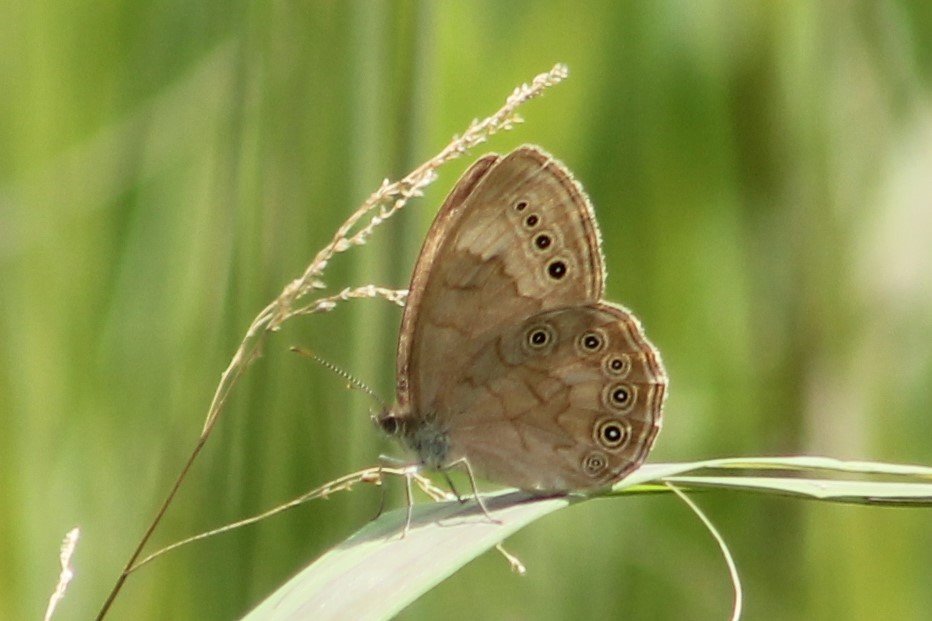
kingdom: Animalia
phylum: Arthropoda
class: Insecta
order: Lepidoptera
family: Nymphalidae
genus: Lethe
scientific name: Lethe eurydice
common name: Eyed Brown
